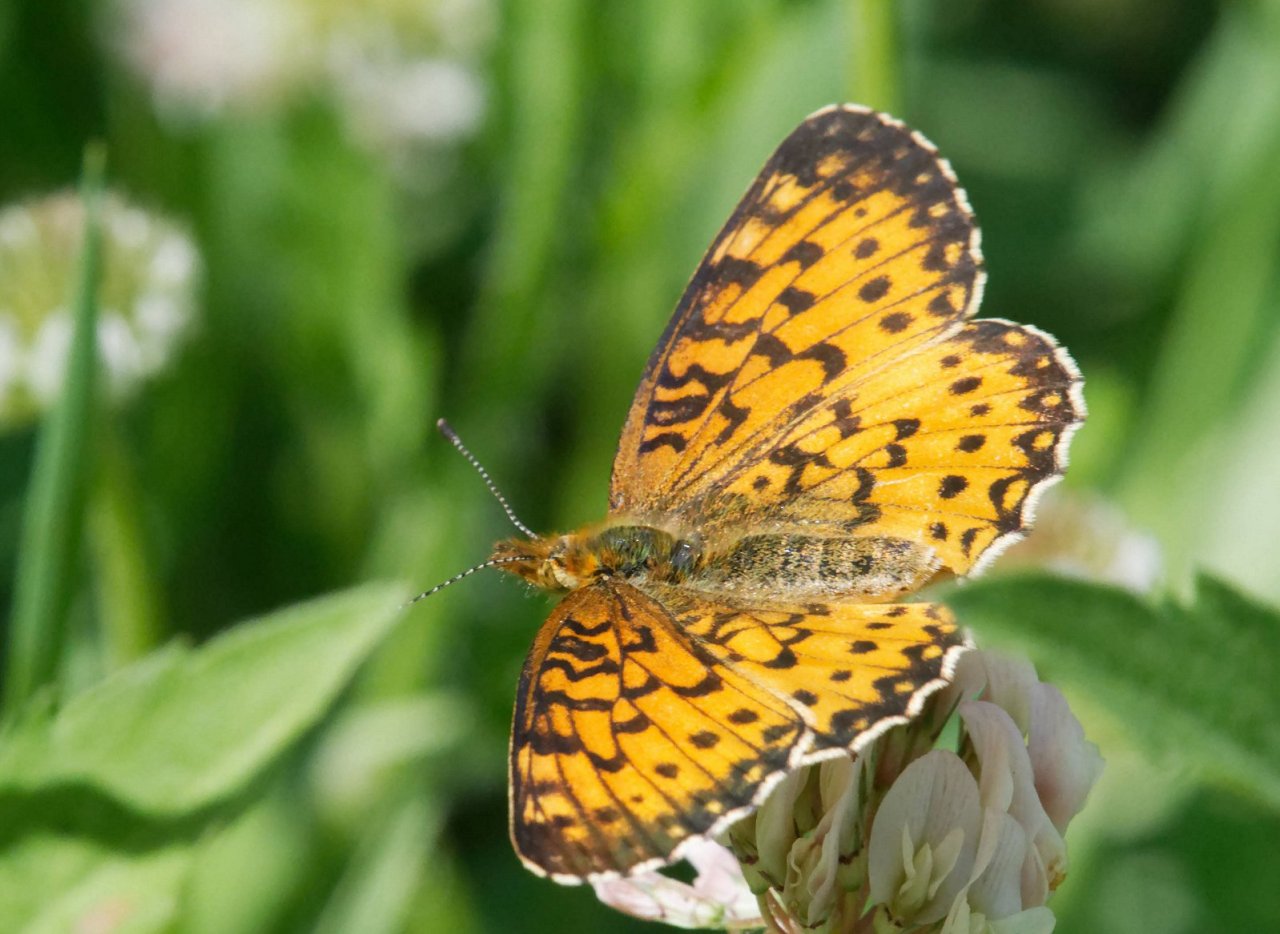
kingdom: Animalia
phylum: Arthropoda
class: Insecta
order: Lepidoptera
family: Nymphalidae
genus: Boloria
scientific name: Boloria selene
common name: Silver-bordered Fritillary
